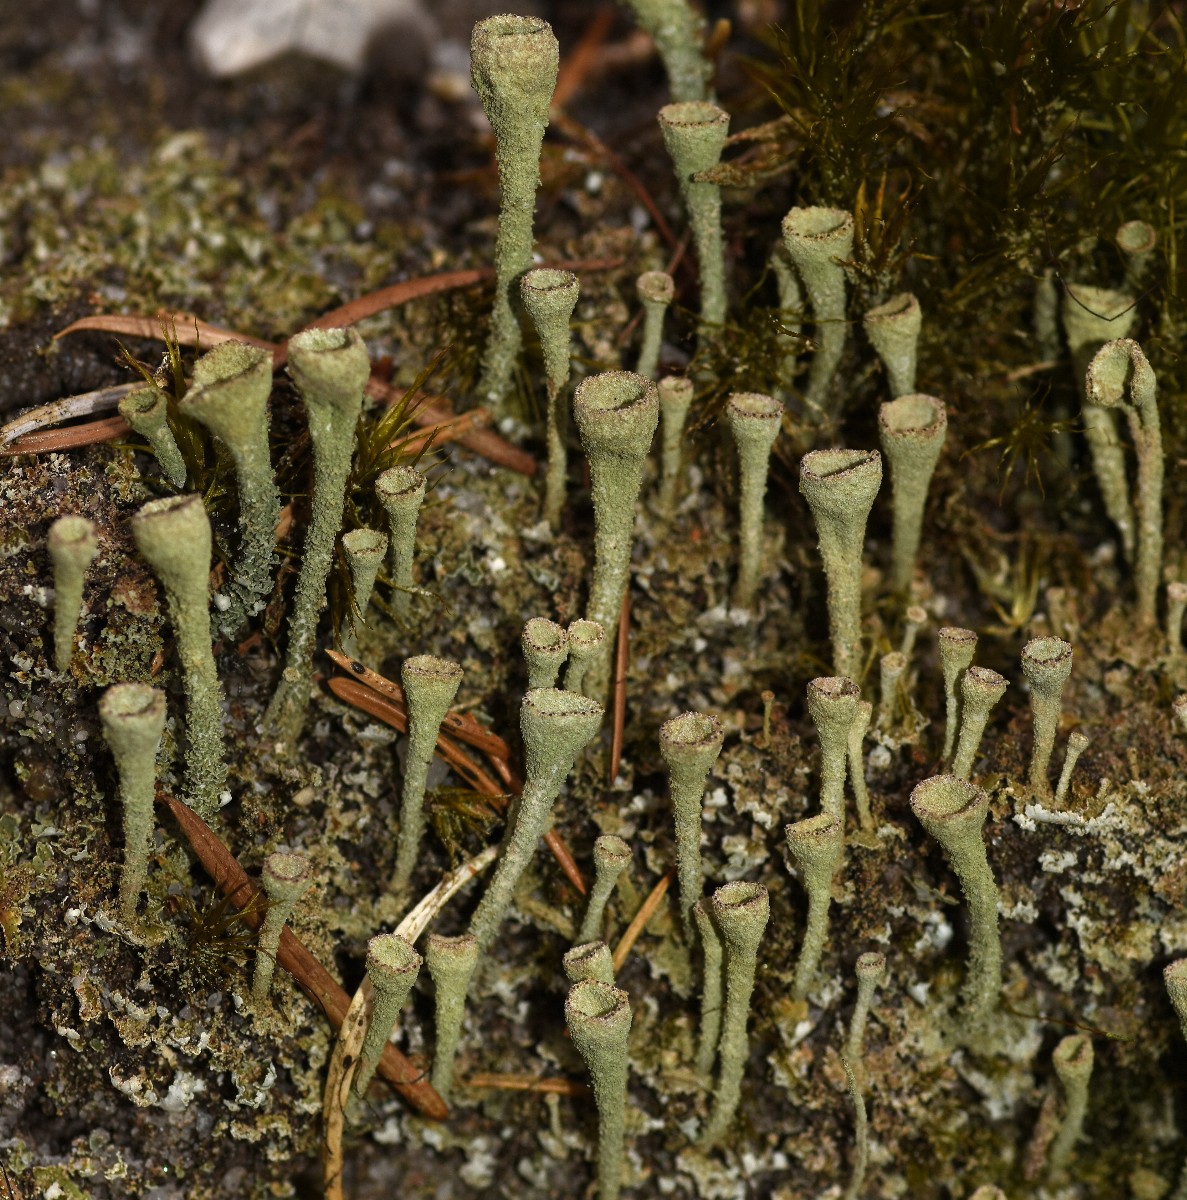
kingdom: Fungi
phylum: Ascomycota
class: Lecanoromycetes
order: Lecanorales
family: Cladoniaceae
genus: Cladonia
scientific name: Cladonia
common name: brungrøn bægerlav
